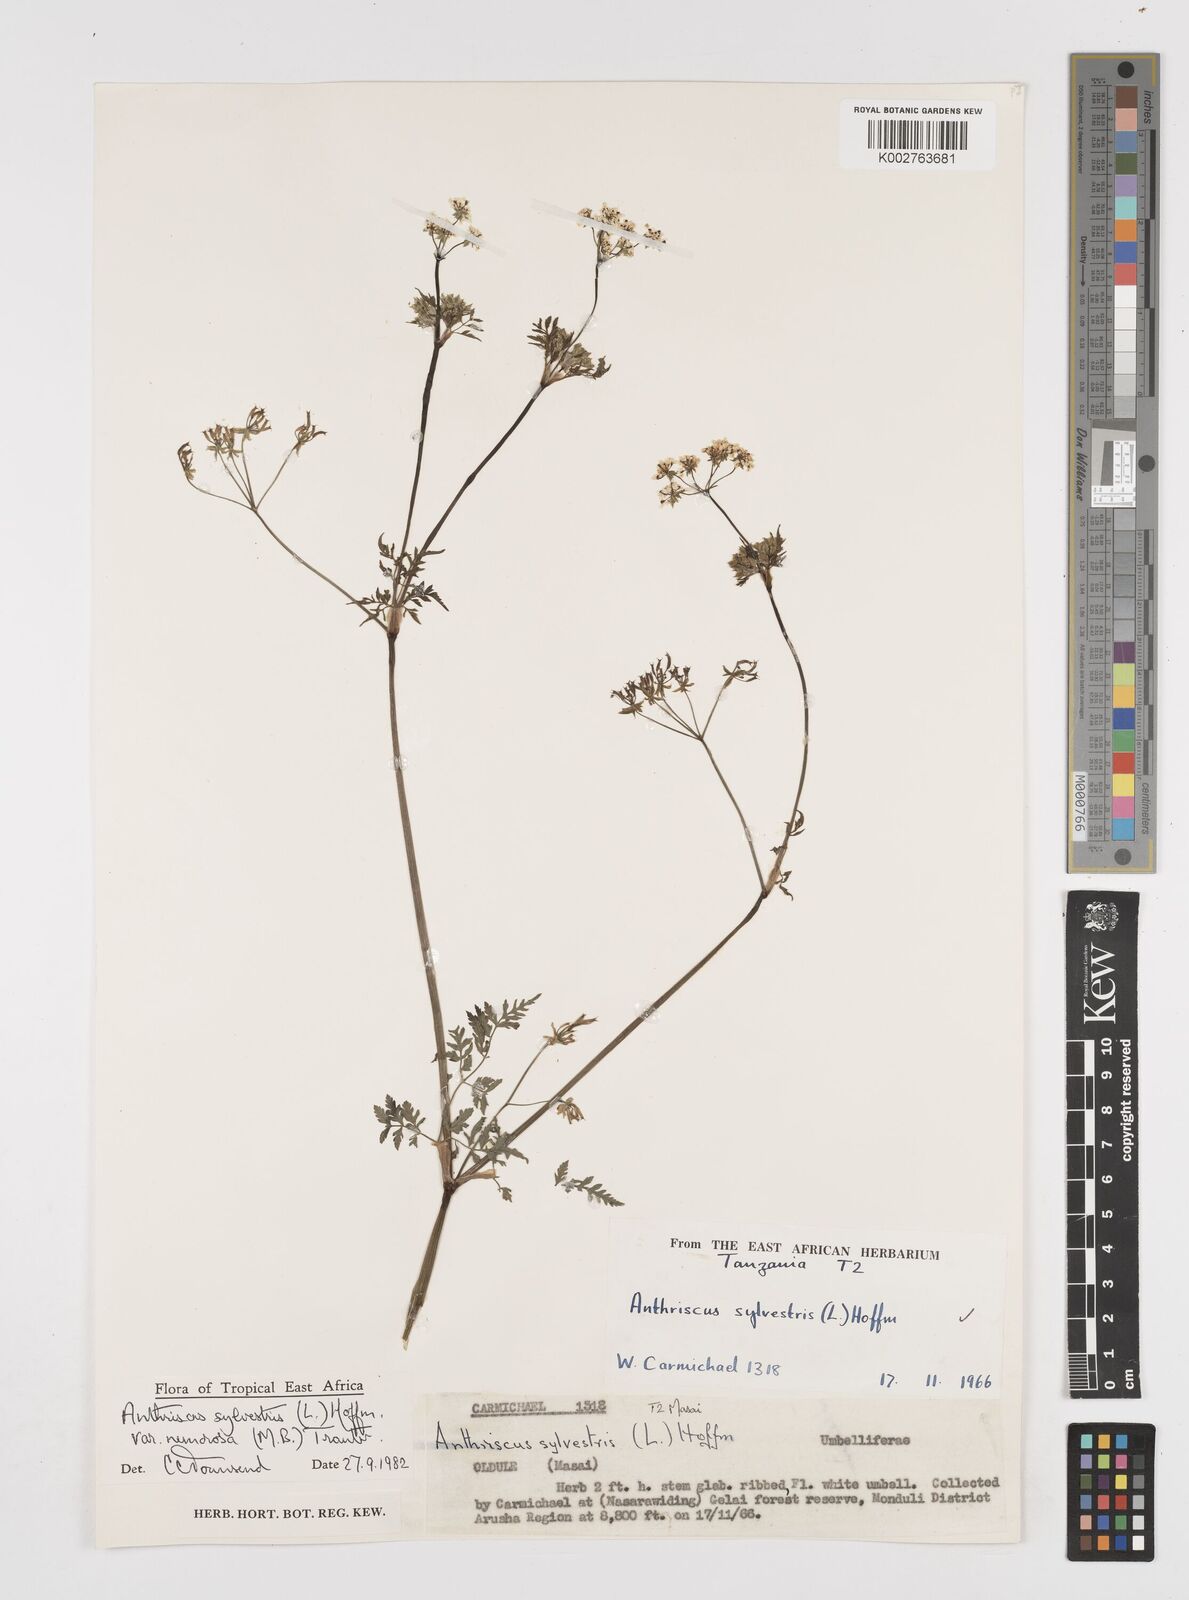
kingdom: Plantae
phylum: Tracheophyta
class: Magnoliopsida
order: Apiales
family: Apiaceae
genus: Anthriscus
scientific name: Anthriscus sylvestris
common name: Cow parsley
